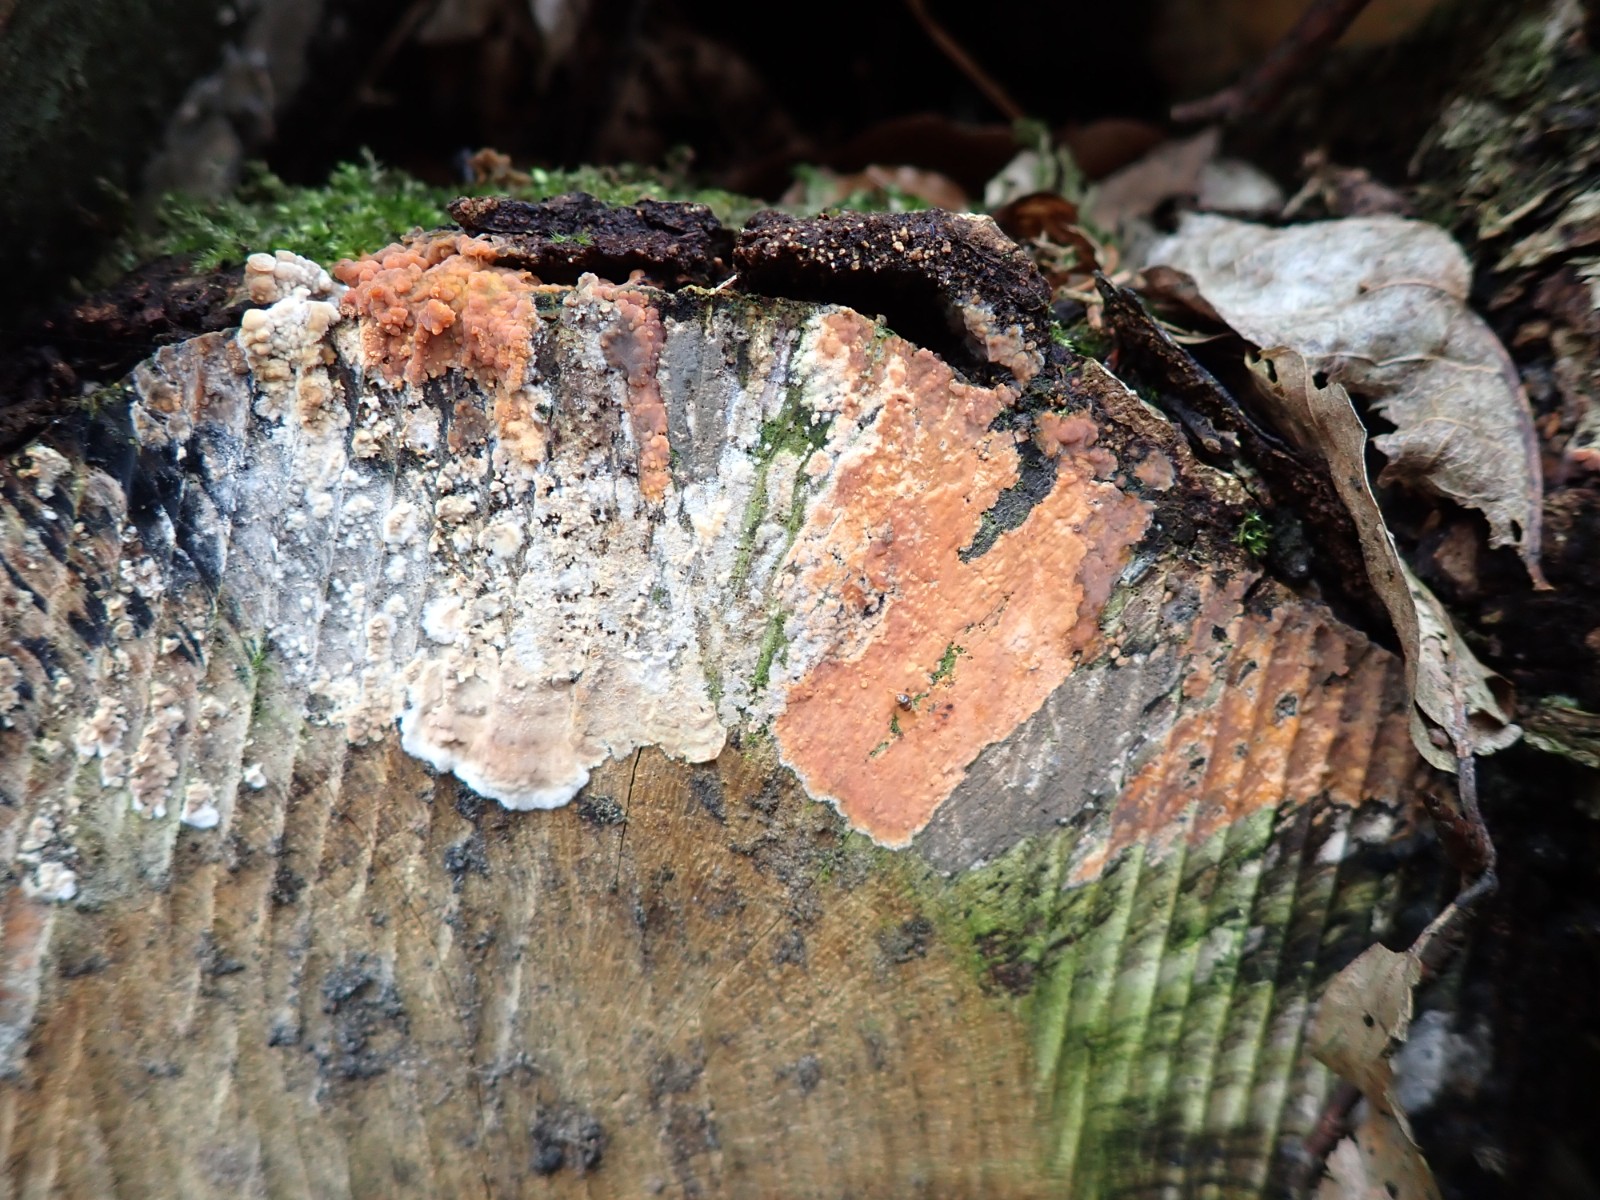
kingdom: Fungi
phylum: Basidiomycota
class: Agaricomycetes
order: Russulales
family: Peniophoraceae
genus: Peniophora
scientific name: Peniophora incarnata
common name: laksefarvet voksskind
